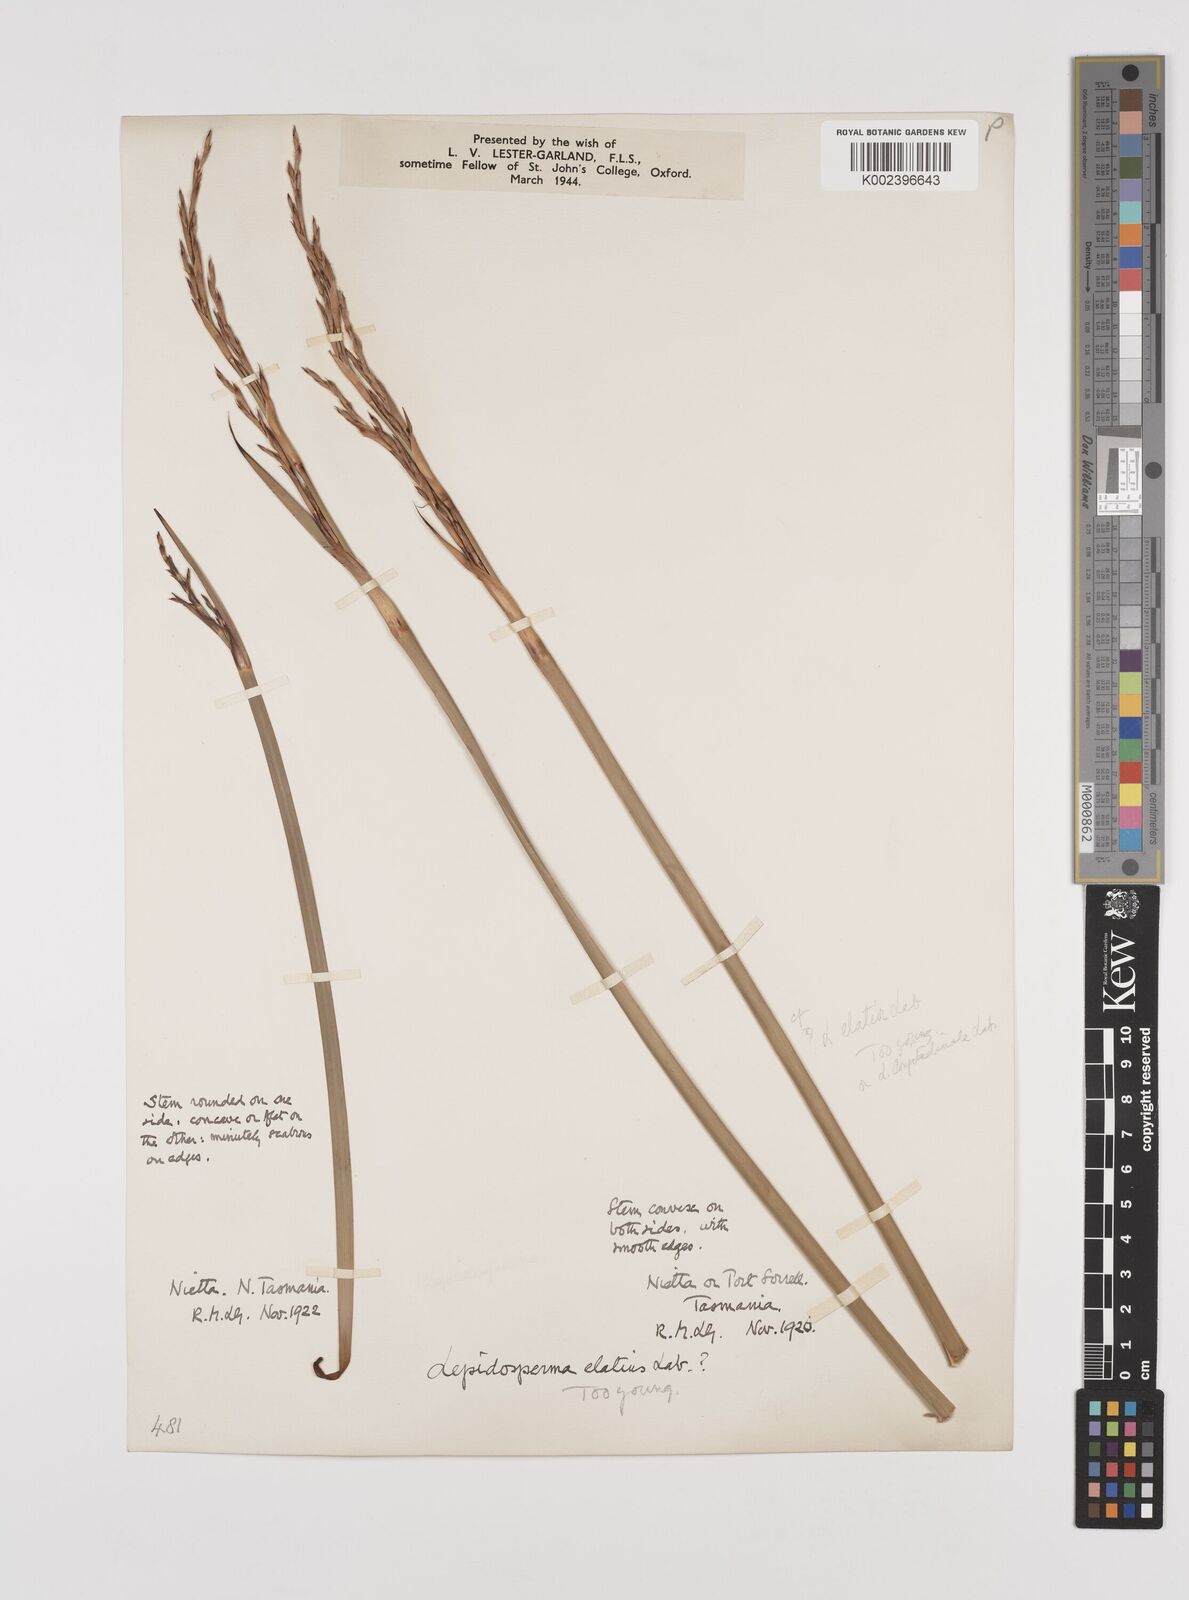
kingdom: Plantae
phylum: Tracheophyta
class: Liliopsida
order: Poales
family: Cyperaceae
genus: Lepidosperma
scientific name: Lepidosperma elatius
